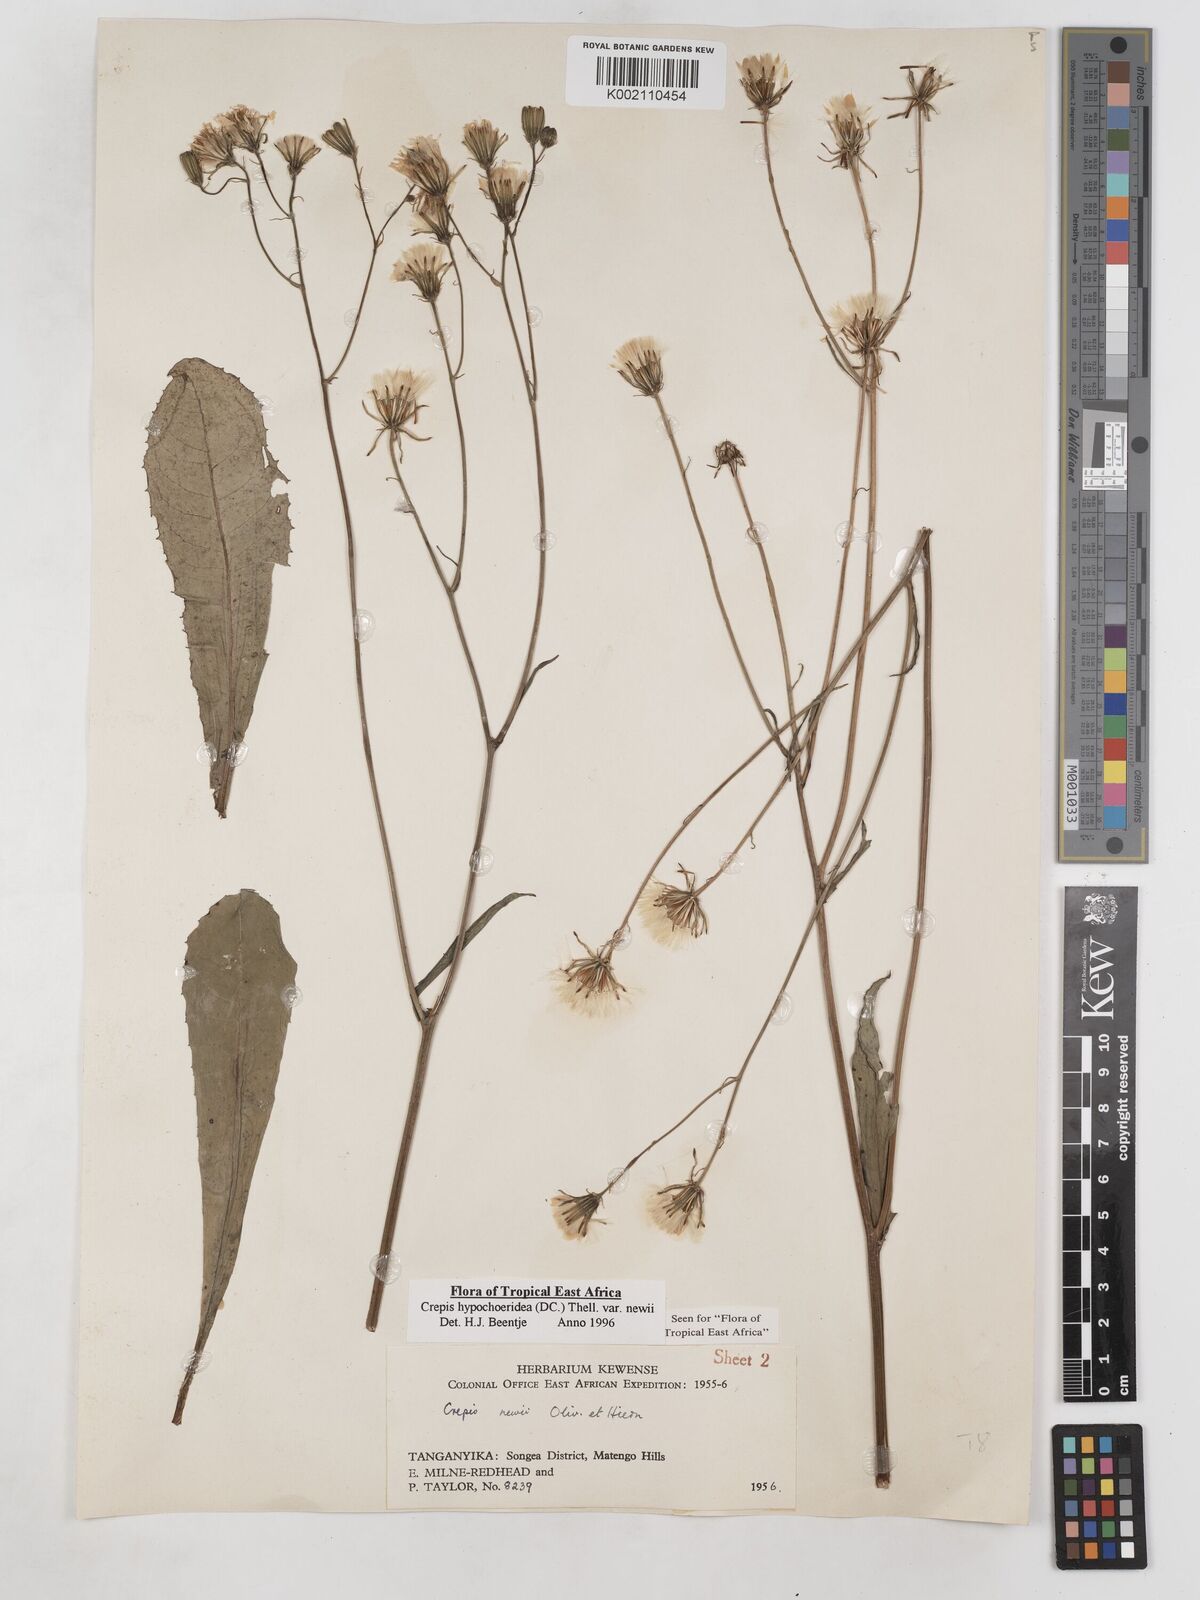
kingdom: Plantae
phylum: Tracheophyta
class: Magnoliopsida
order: Asterales
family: Asteraceae
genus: Crepis
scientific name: Crepis hypochoeridea
